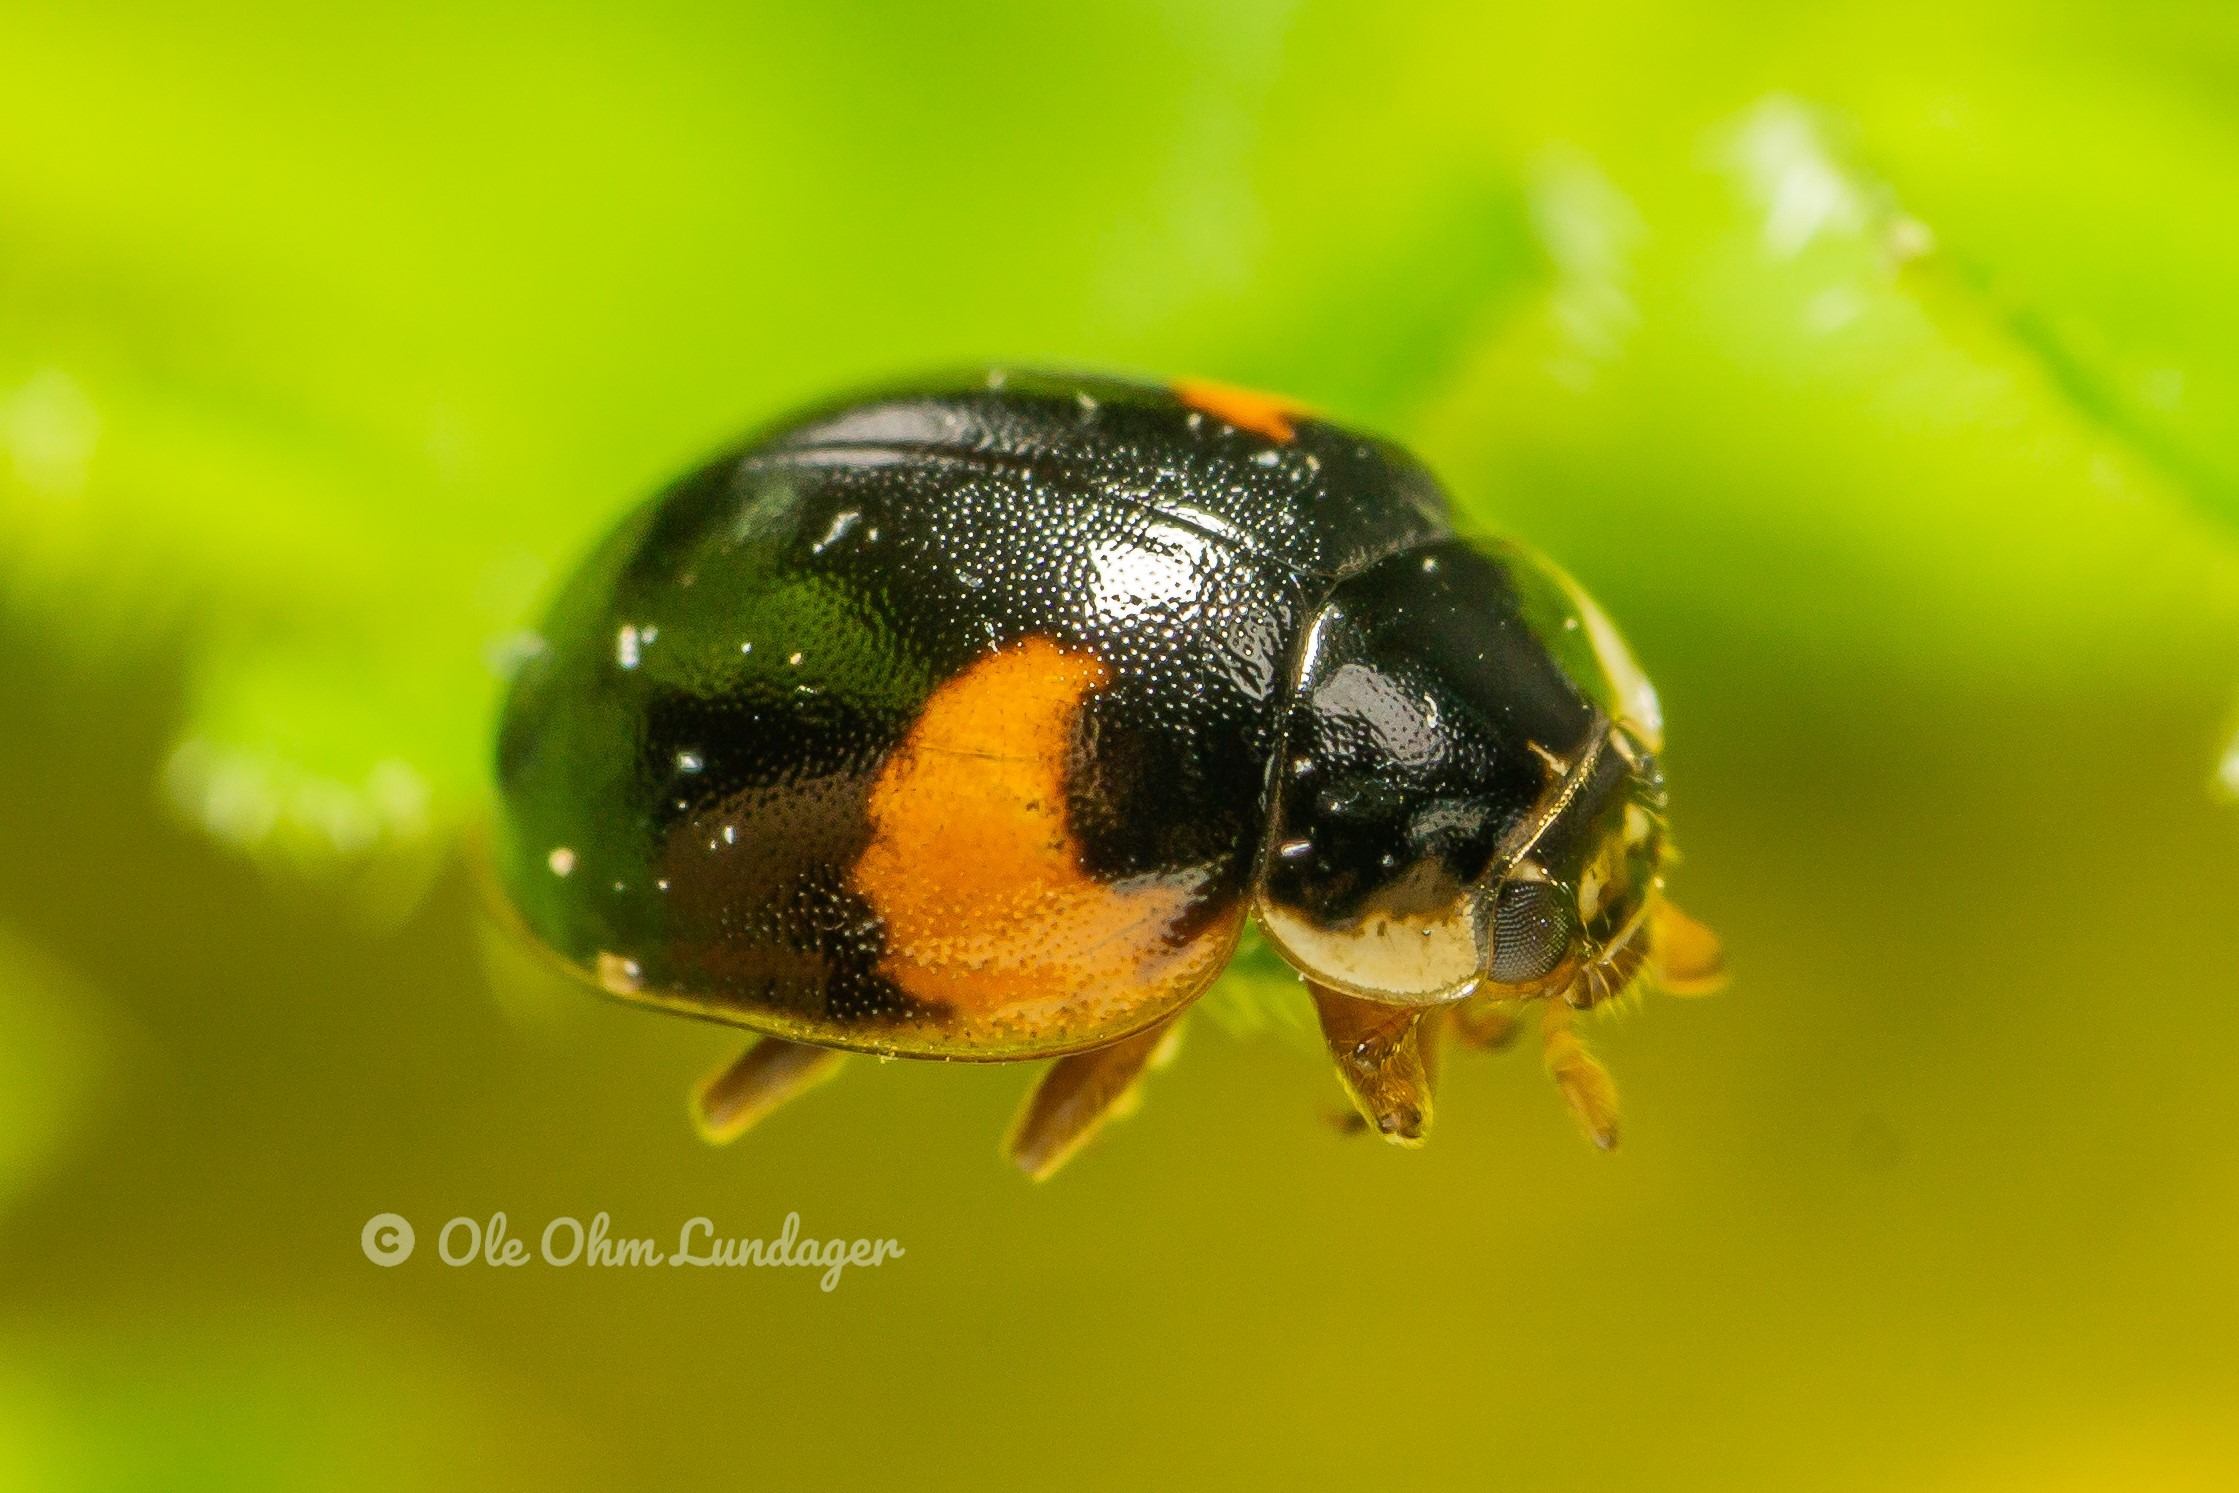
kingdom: Animalia
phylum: Arthropoda
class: Insecta
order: Coleoptera
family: Coccinellidae
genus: Adalia
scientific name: Adalia decempunctata
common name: Tiplettet mariehøne
